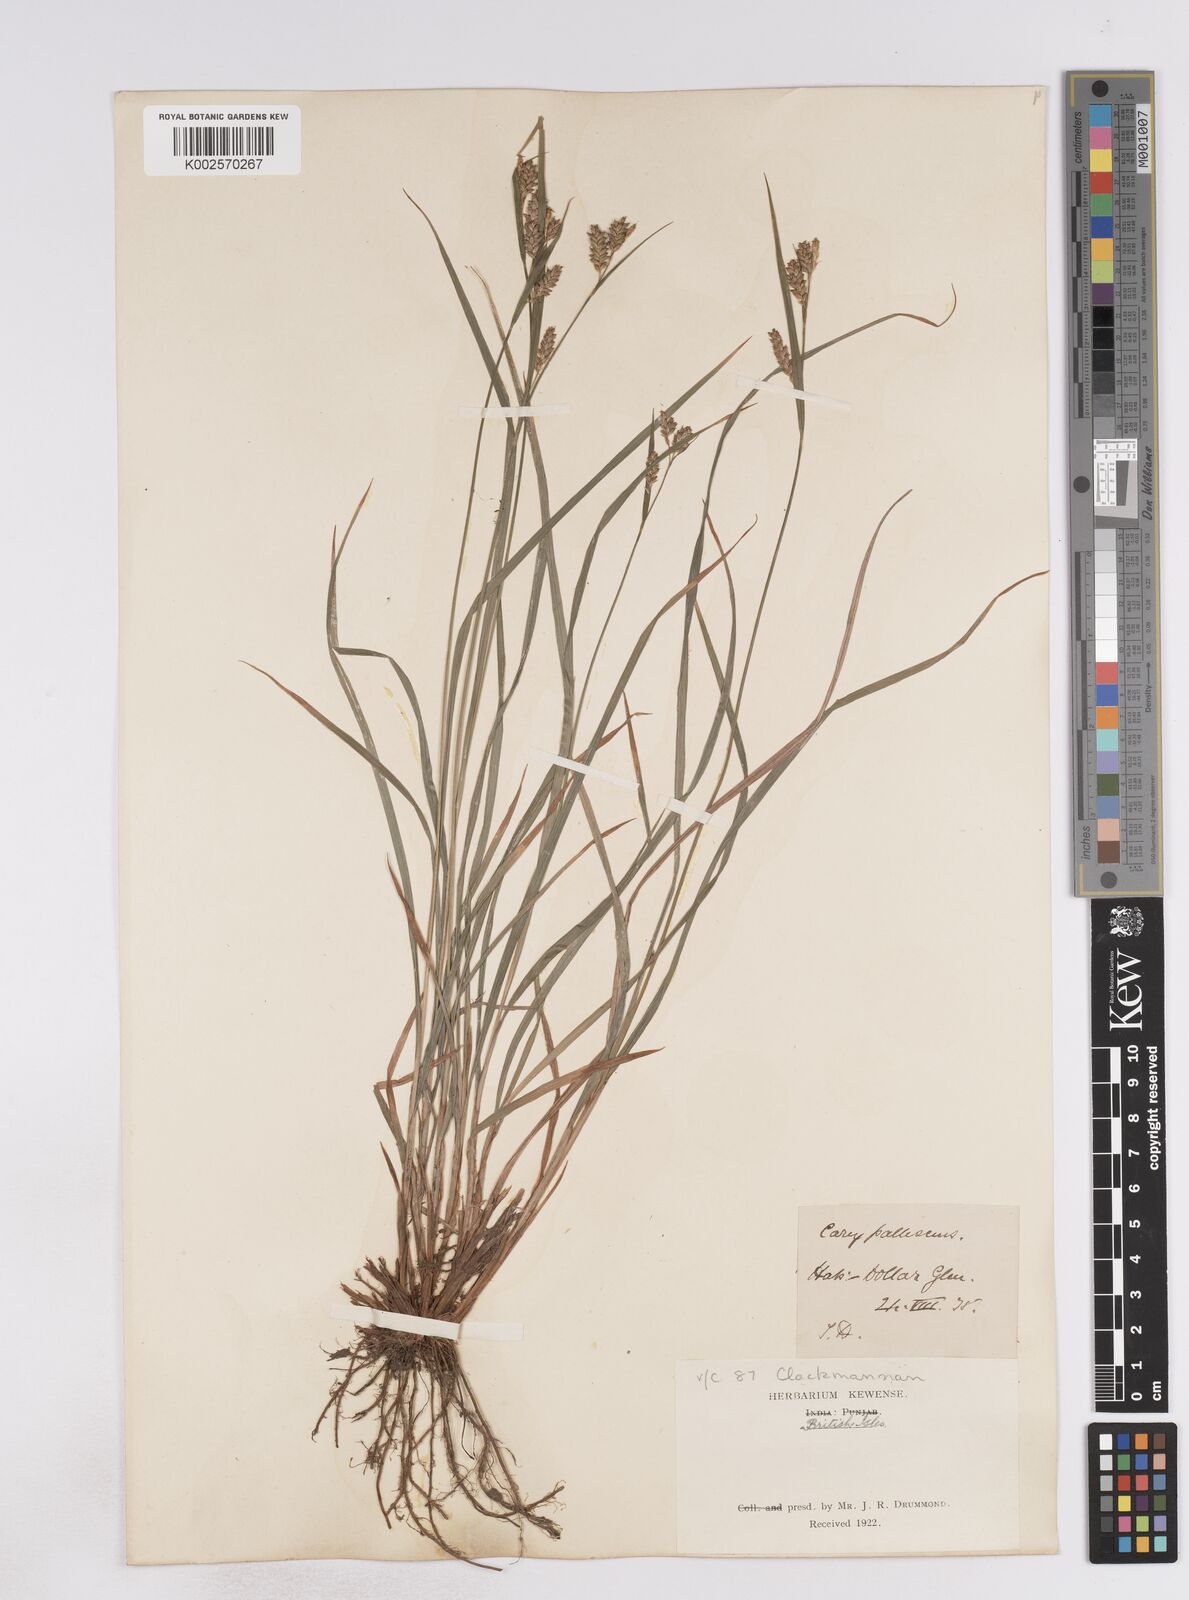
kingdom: Plantae
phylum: Tracheophyta
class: Liliopsida
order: Poales
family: Cyperaceae
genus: Carex
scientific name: Carex pallescens
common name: Pale sedge
